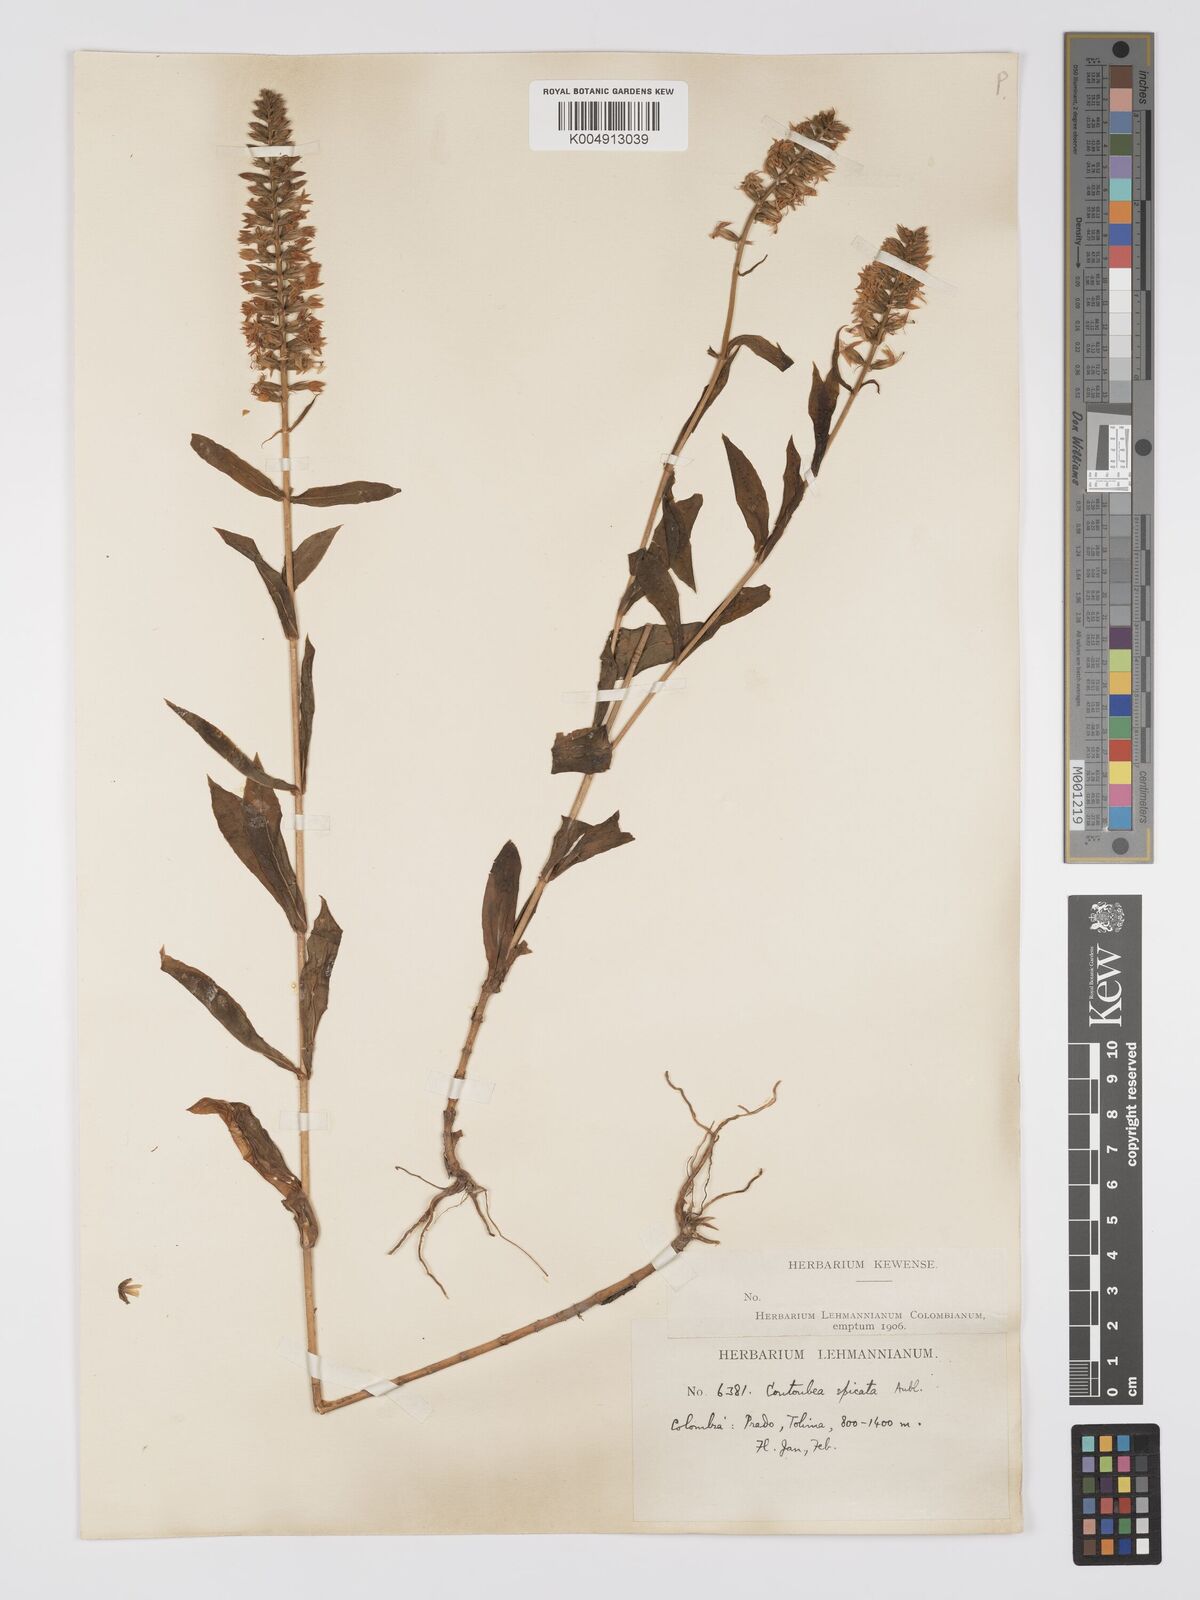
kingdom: Plantae
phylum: Tracheophyta
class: Magnoliopsida
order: Gentianales
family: Gentianaceae
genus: Coutoubea
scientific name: Coutoubea spicata
